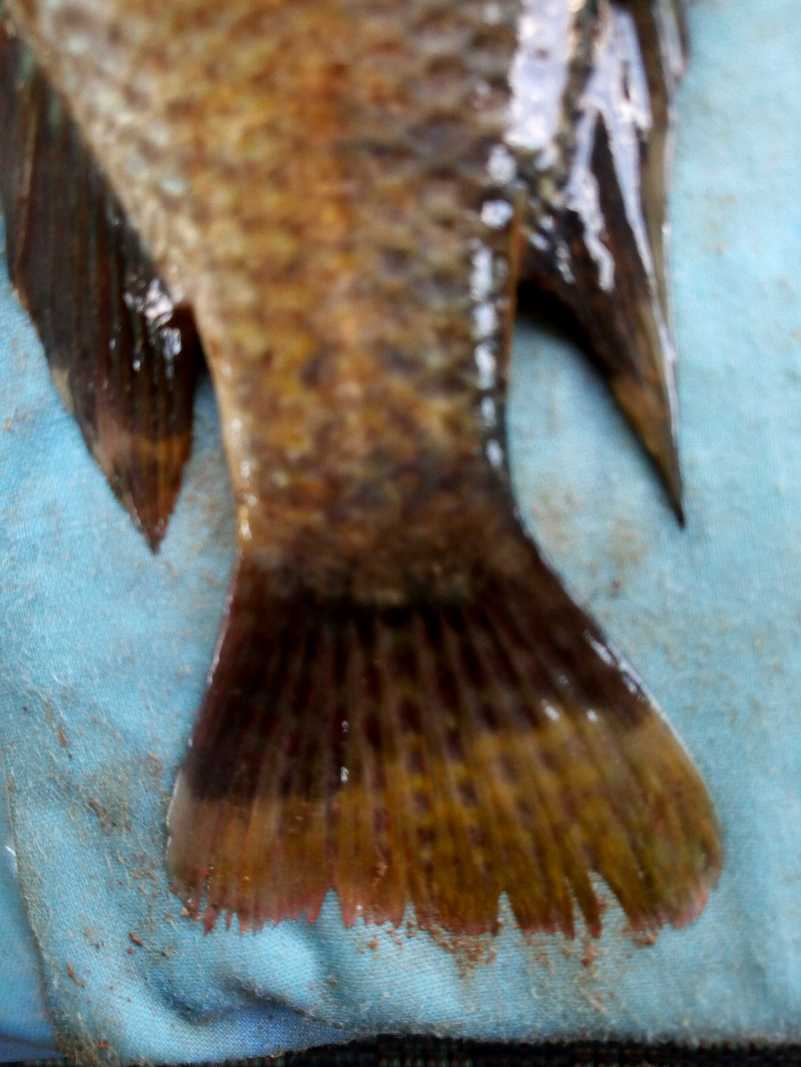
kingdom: Animalia
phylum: Chordata
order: Perciformes
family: Cichlidae
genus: Oreochromis
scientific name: Oreochromis spilurus
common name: Sabaki tilapia
